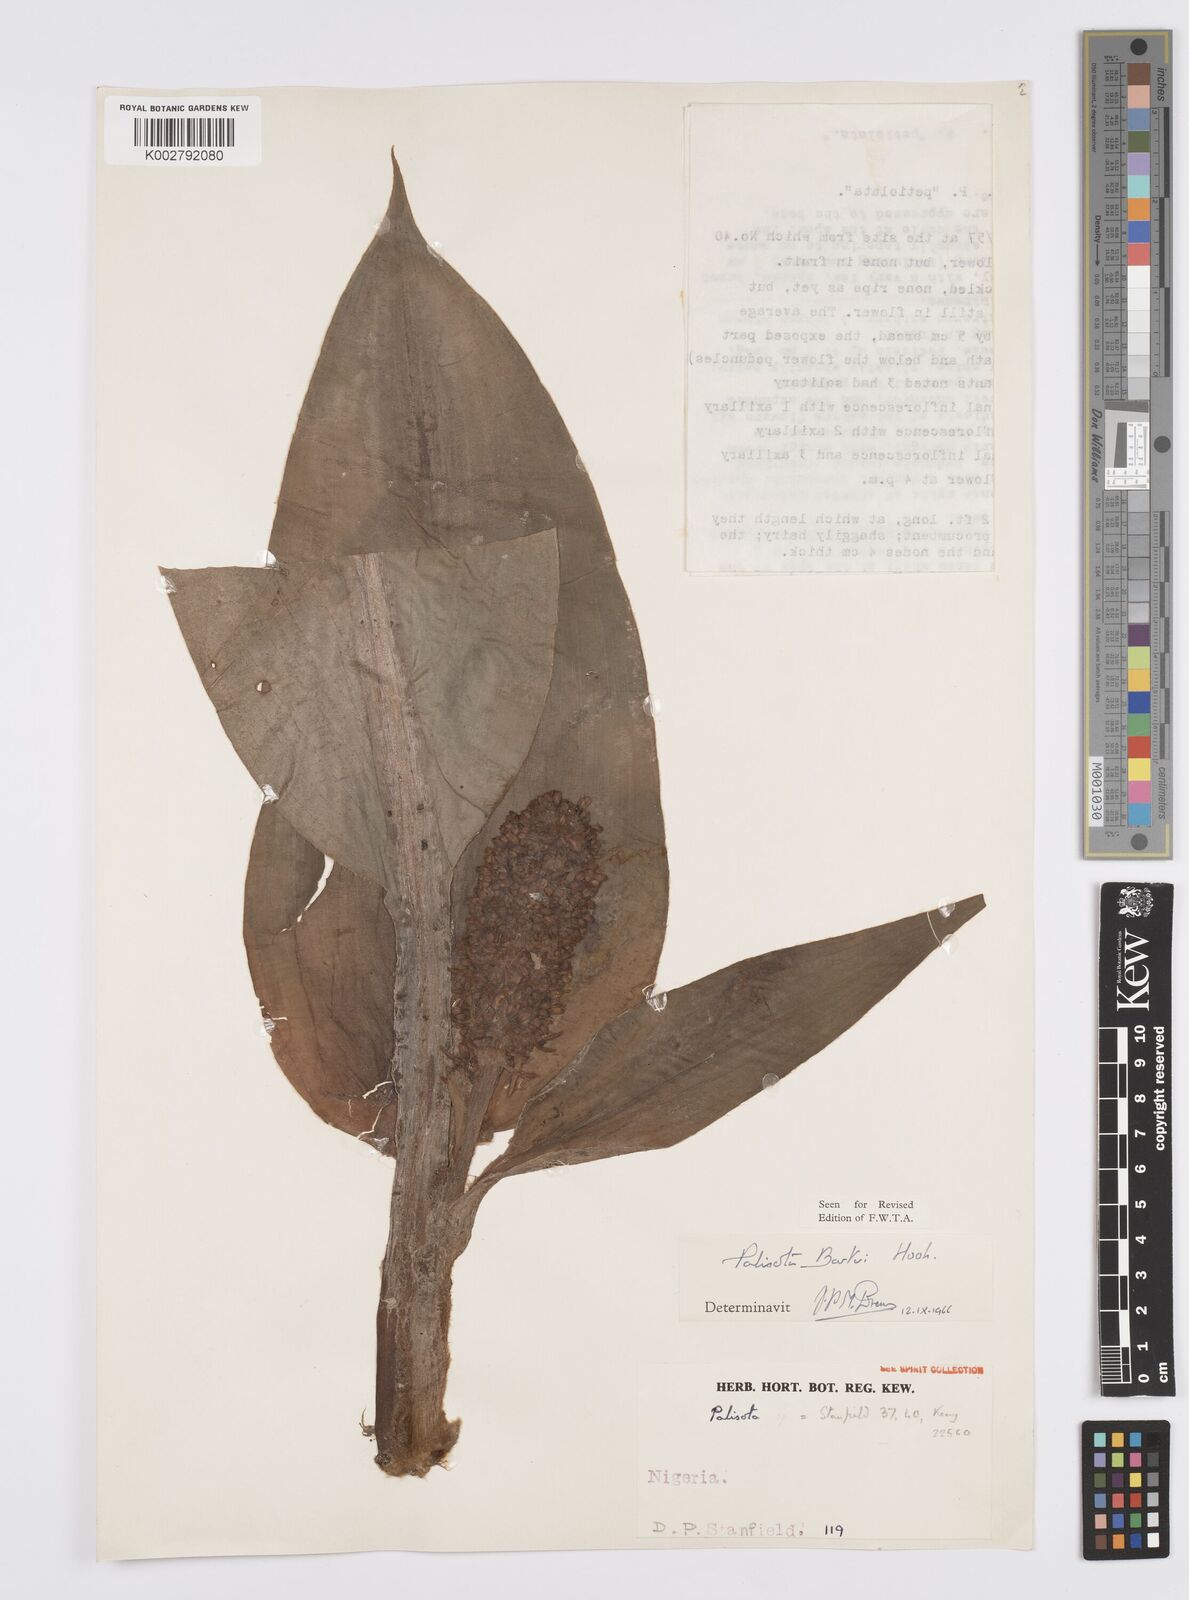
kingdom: Plantae
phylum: Tracheophyta
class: Liliopsida
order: Commelinales
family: Commelinaceae
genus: Palisota
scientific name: Palisota barteri
